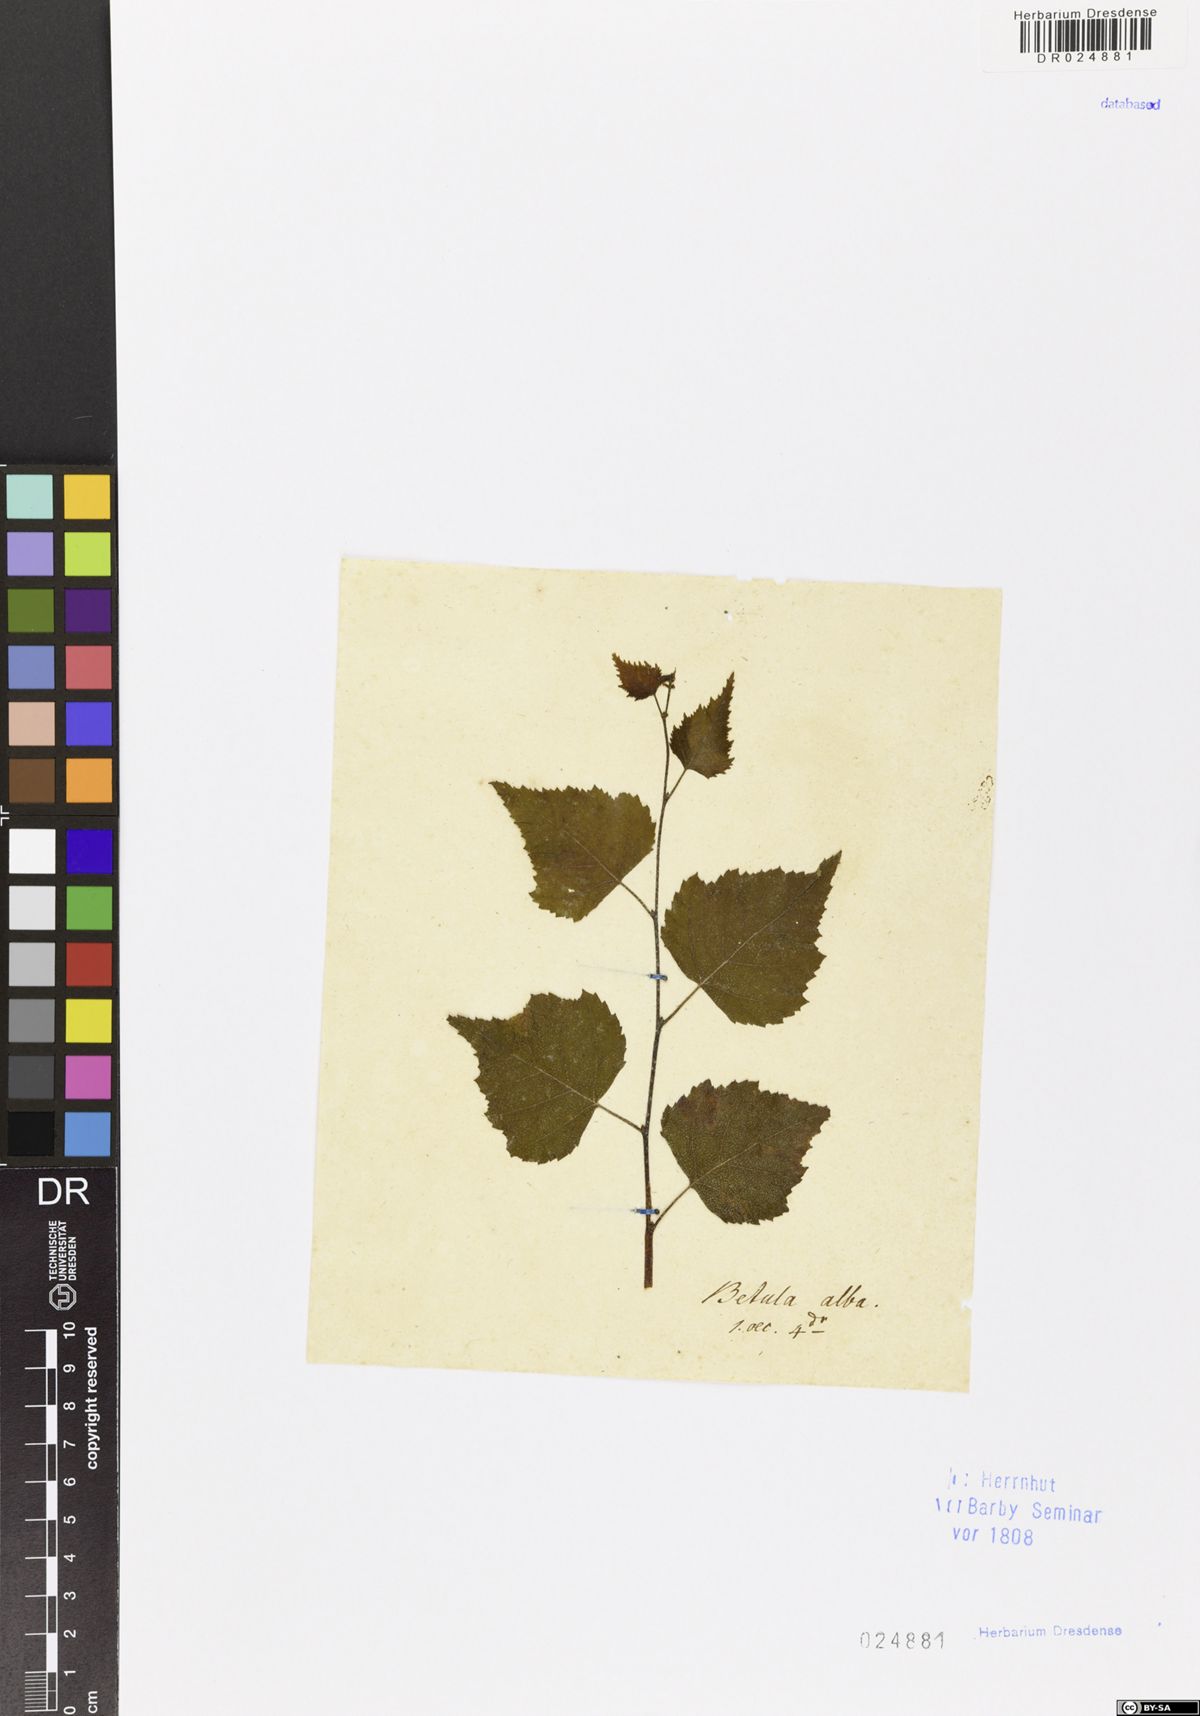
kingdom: Plantae
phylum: Tracheophyta
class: Magnoliopsida
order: Fagales
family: Betulaceae
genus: Betula
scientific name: Betula pendula
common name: Silver birch
